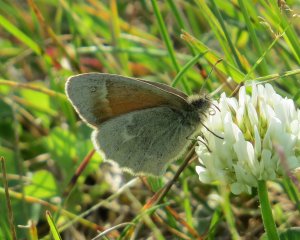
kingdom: Animalia
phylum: Arthropoda
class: Insecta
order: Lepidoptera
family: Nymphalidae
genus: Coenonympha
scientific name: Coenonympha tullia
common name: Large Heath
